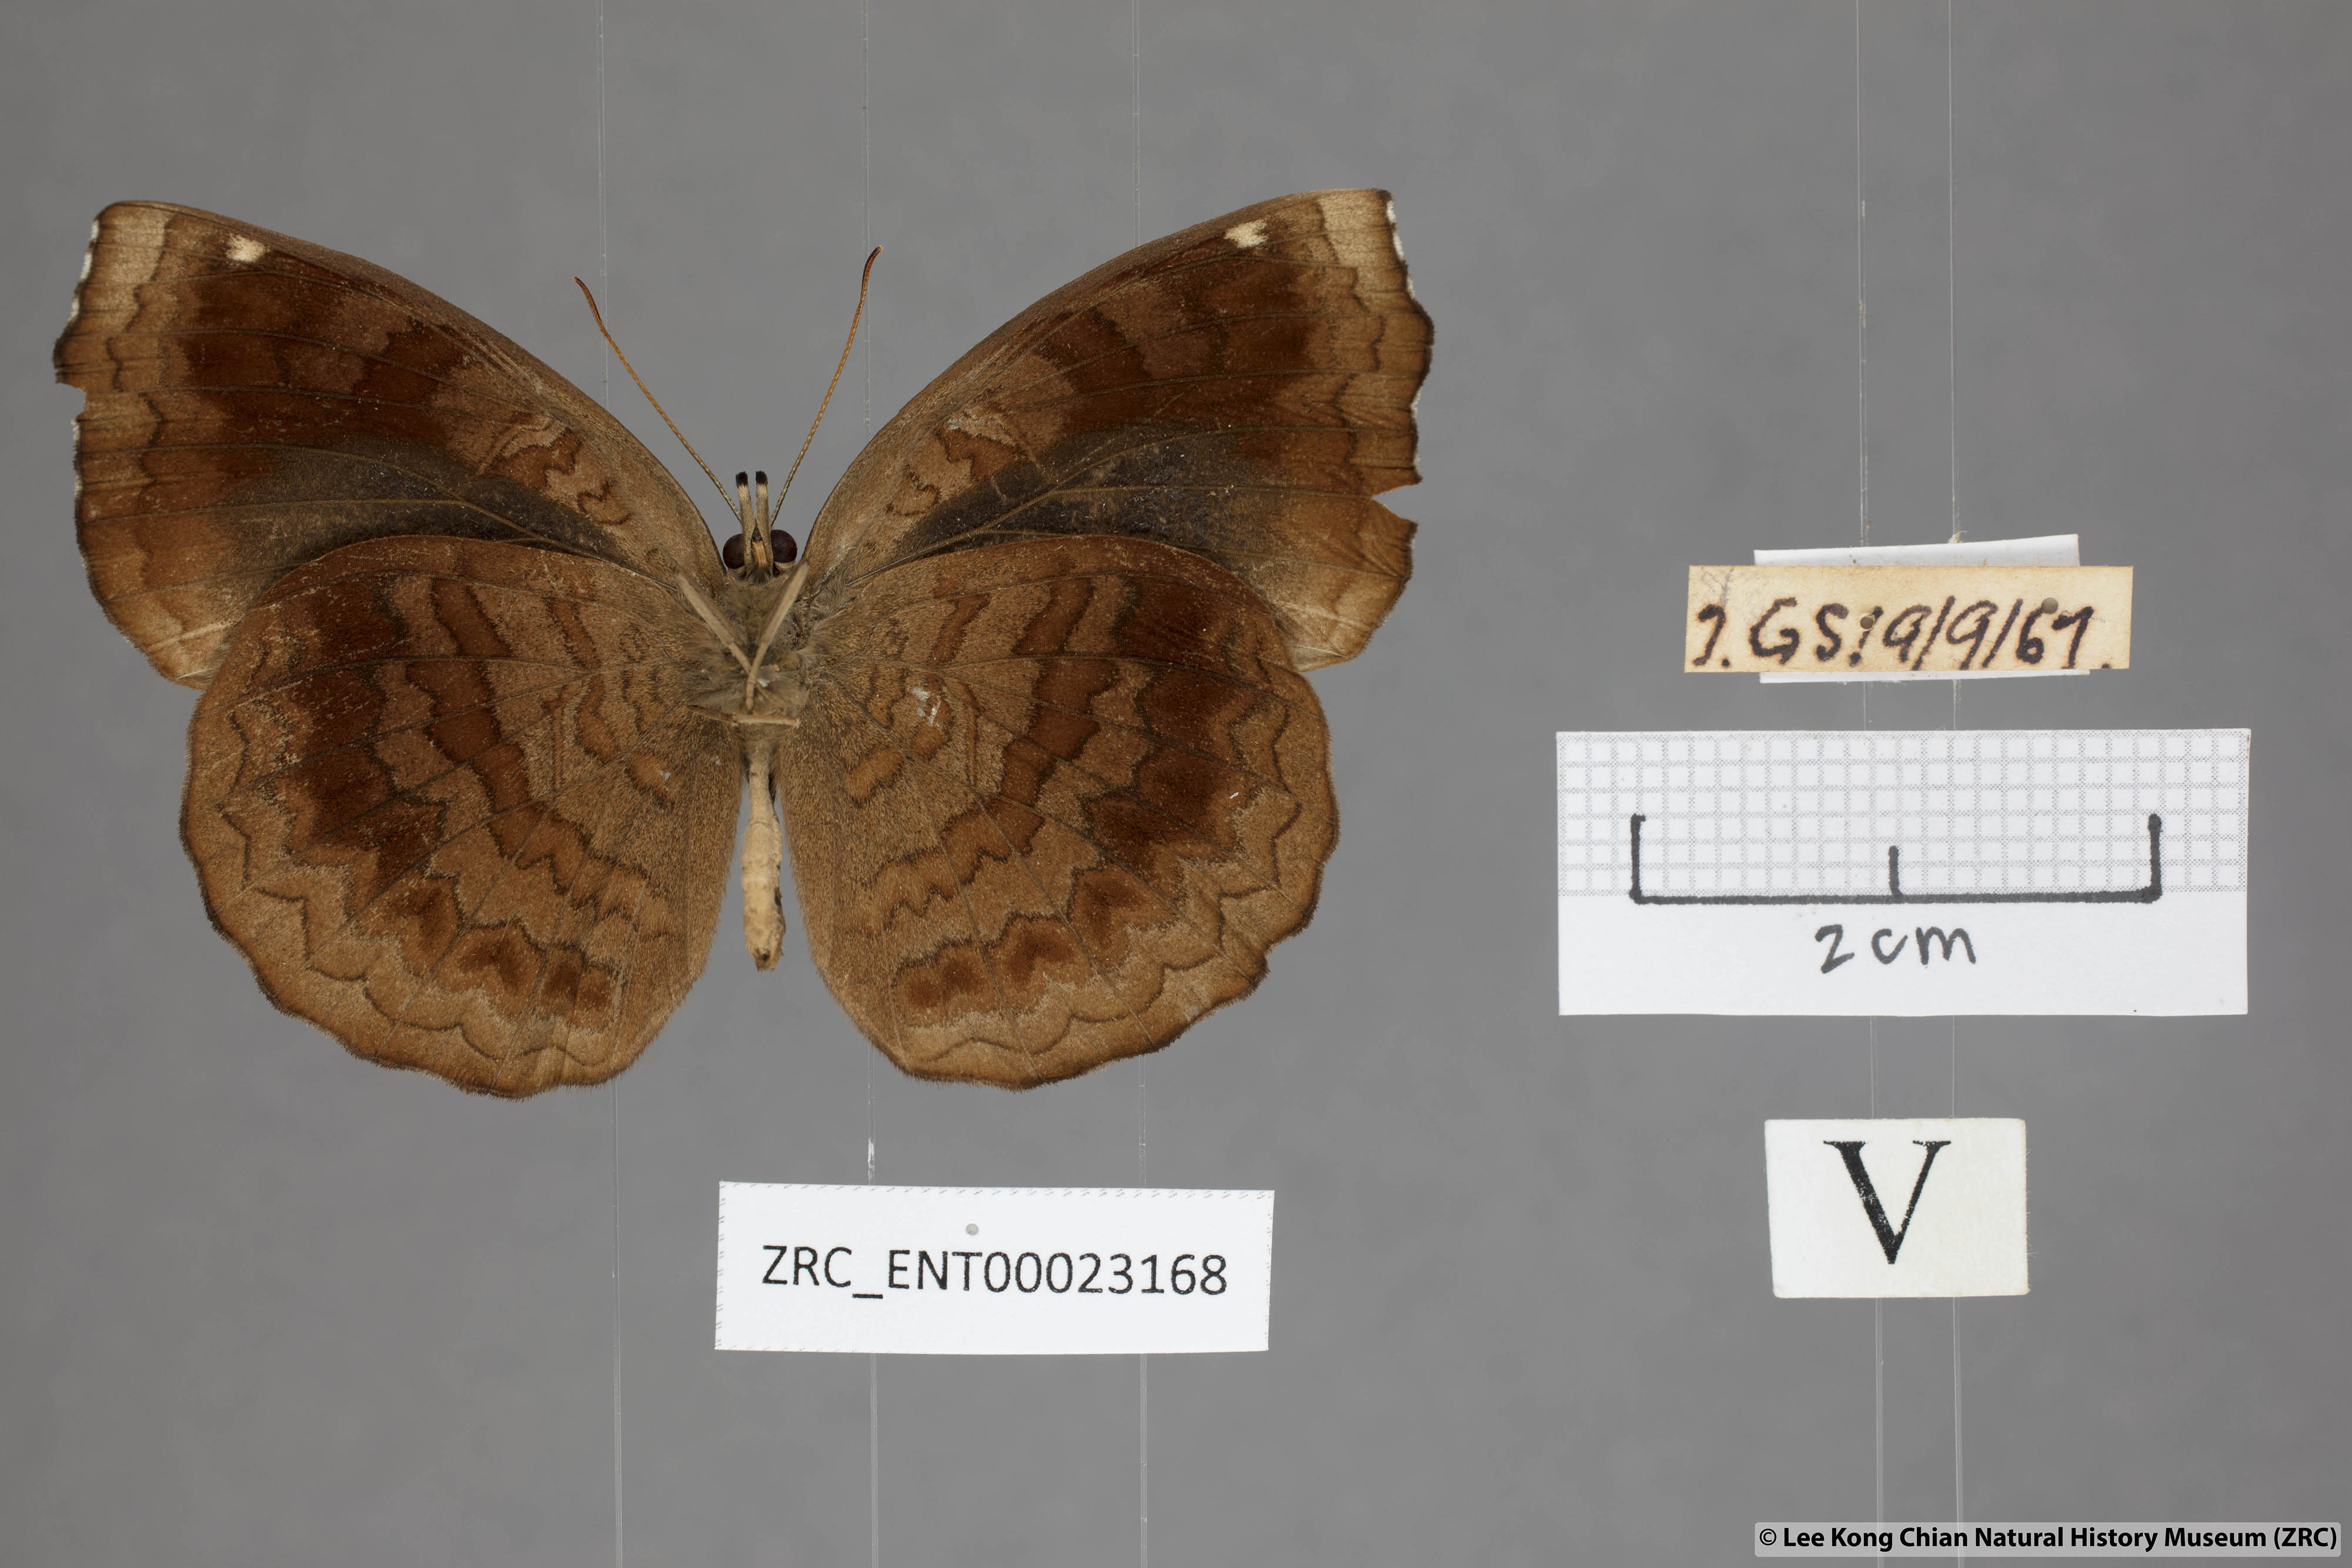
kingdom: Animalia
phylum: Arthropoda
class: Insecta
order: Lepidoptera
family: Nymphalidae
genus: Ariadne
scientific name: Ariadne merione
